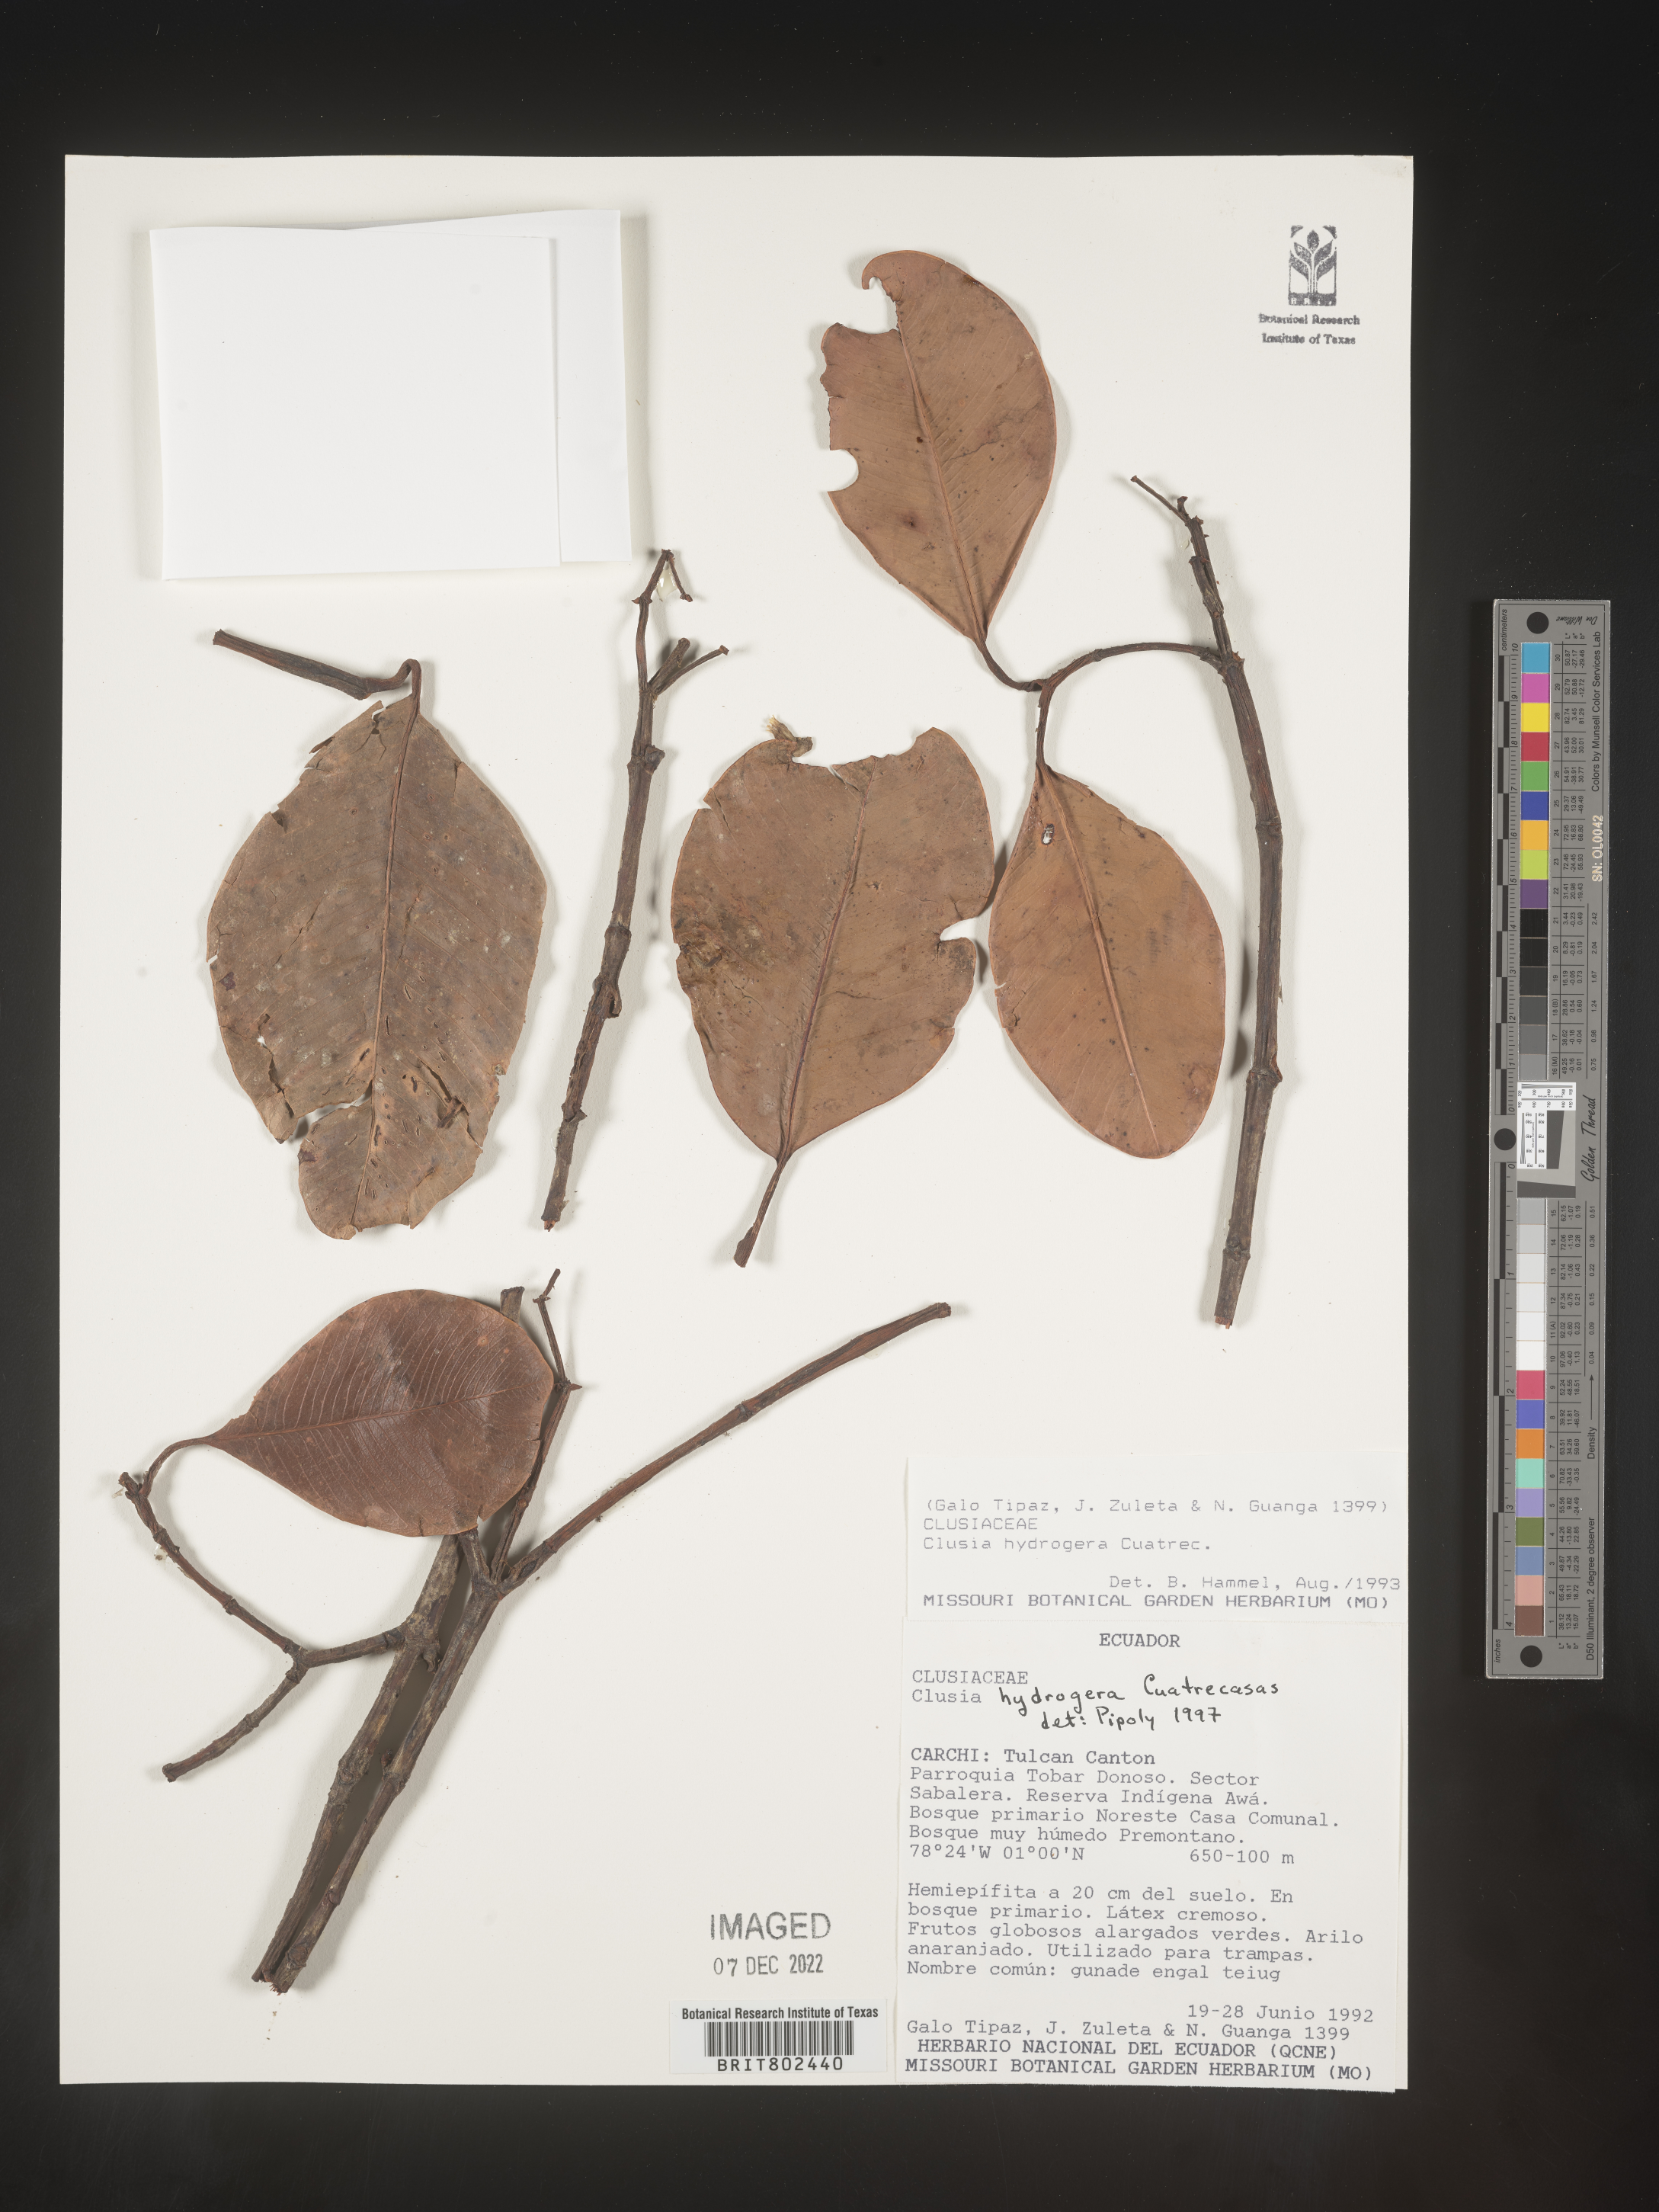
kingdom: Plantae
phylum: Tracheophyta
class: Magnoliopsida
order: Malpighiales
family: Clusiaceae
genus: Clusia
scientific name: Clusia hydrogera
